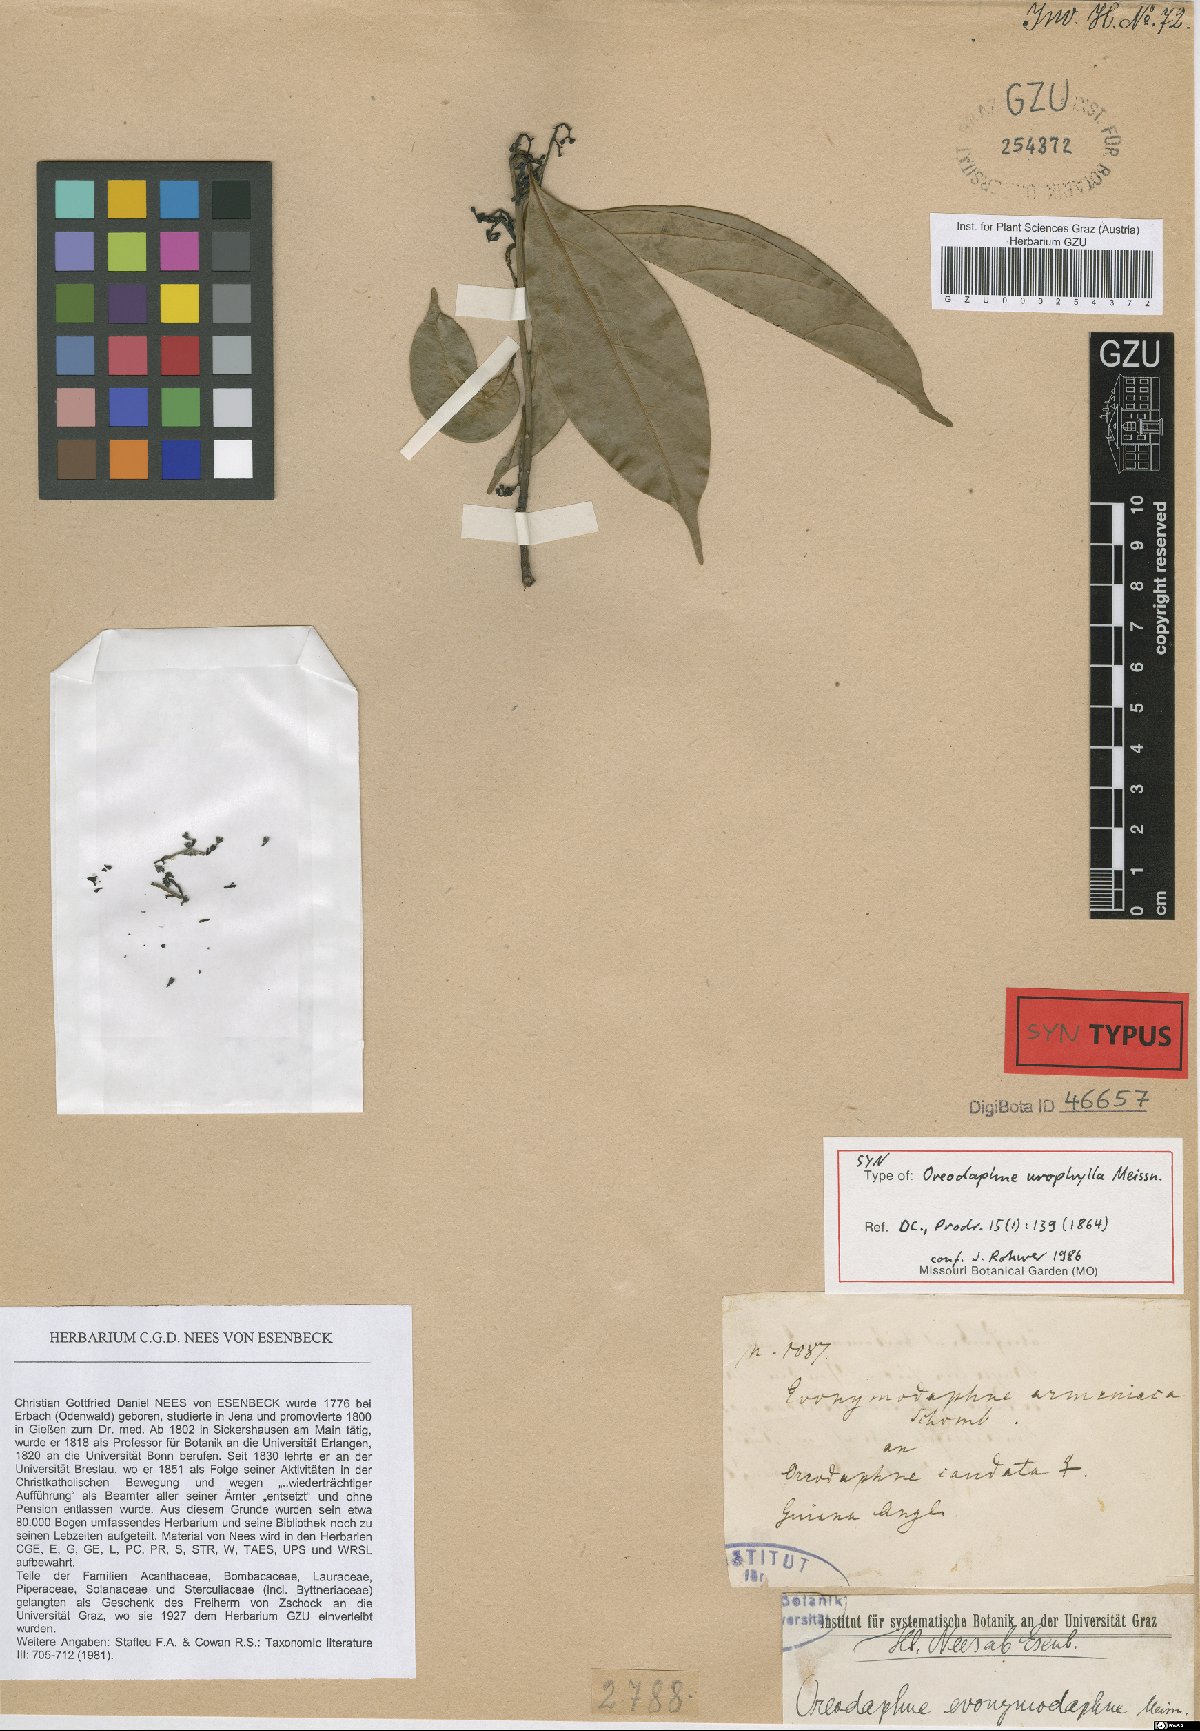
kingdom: Plantae
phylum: Tracheophyta
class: Magnoliopsida
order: Laurales
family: Lauraceae
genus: Ocotea
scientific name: Ocotea leptobotra
